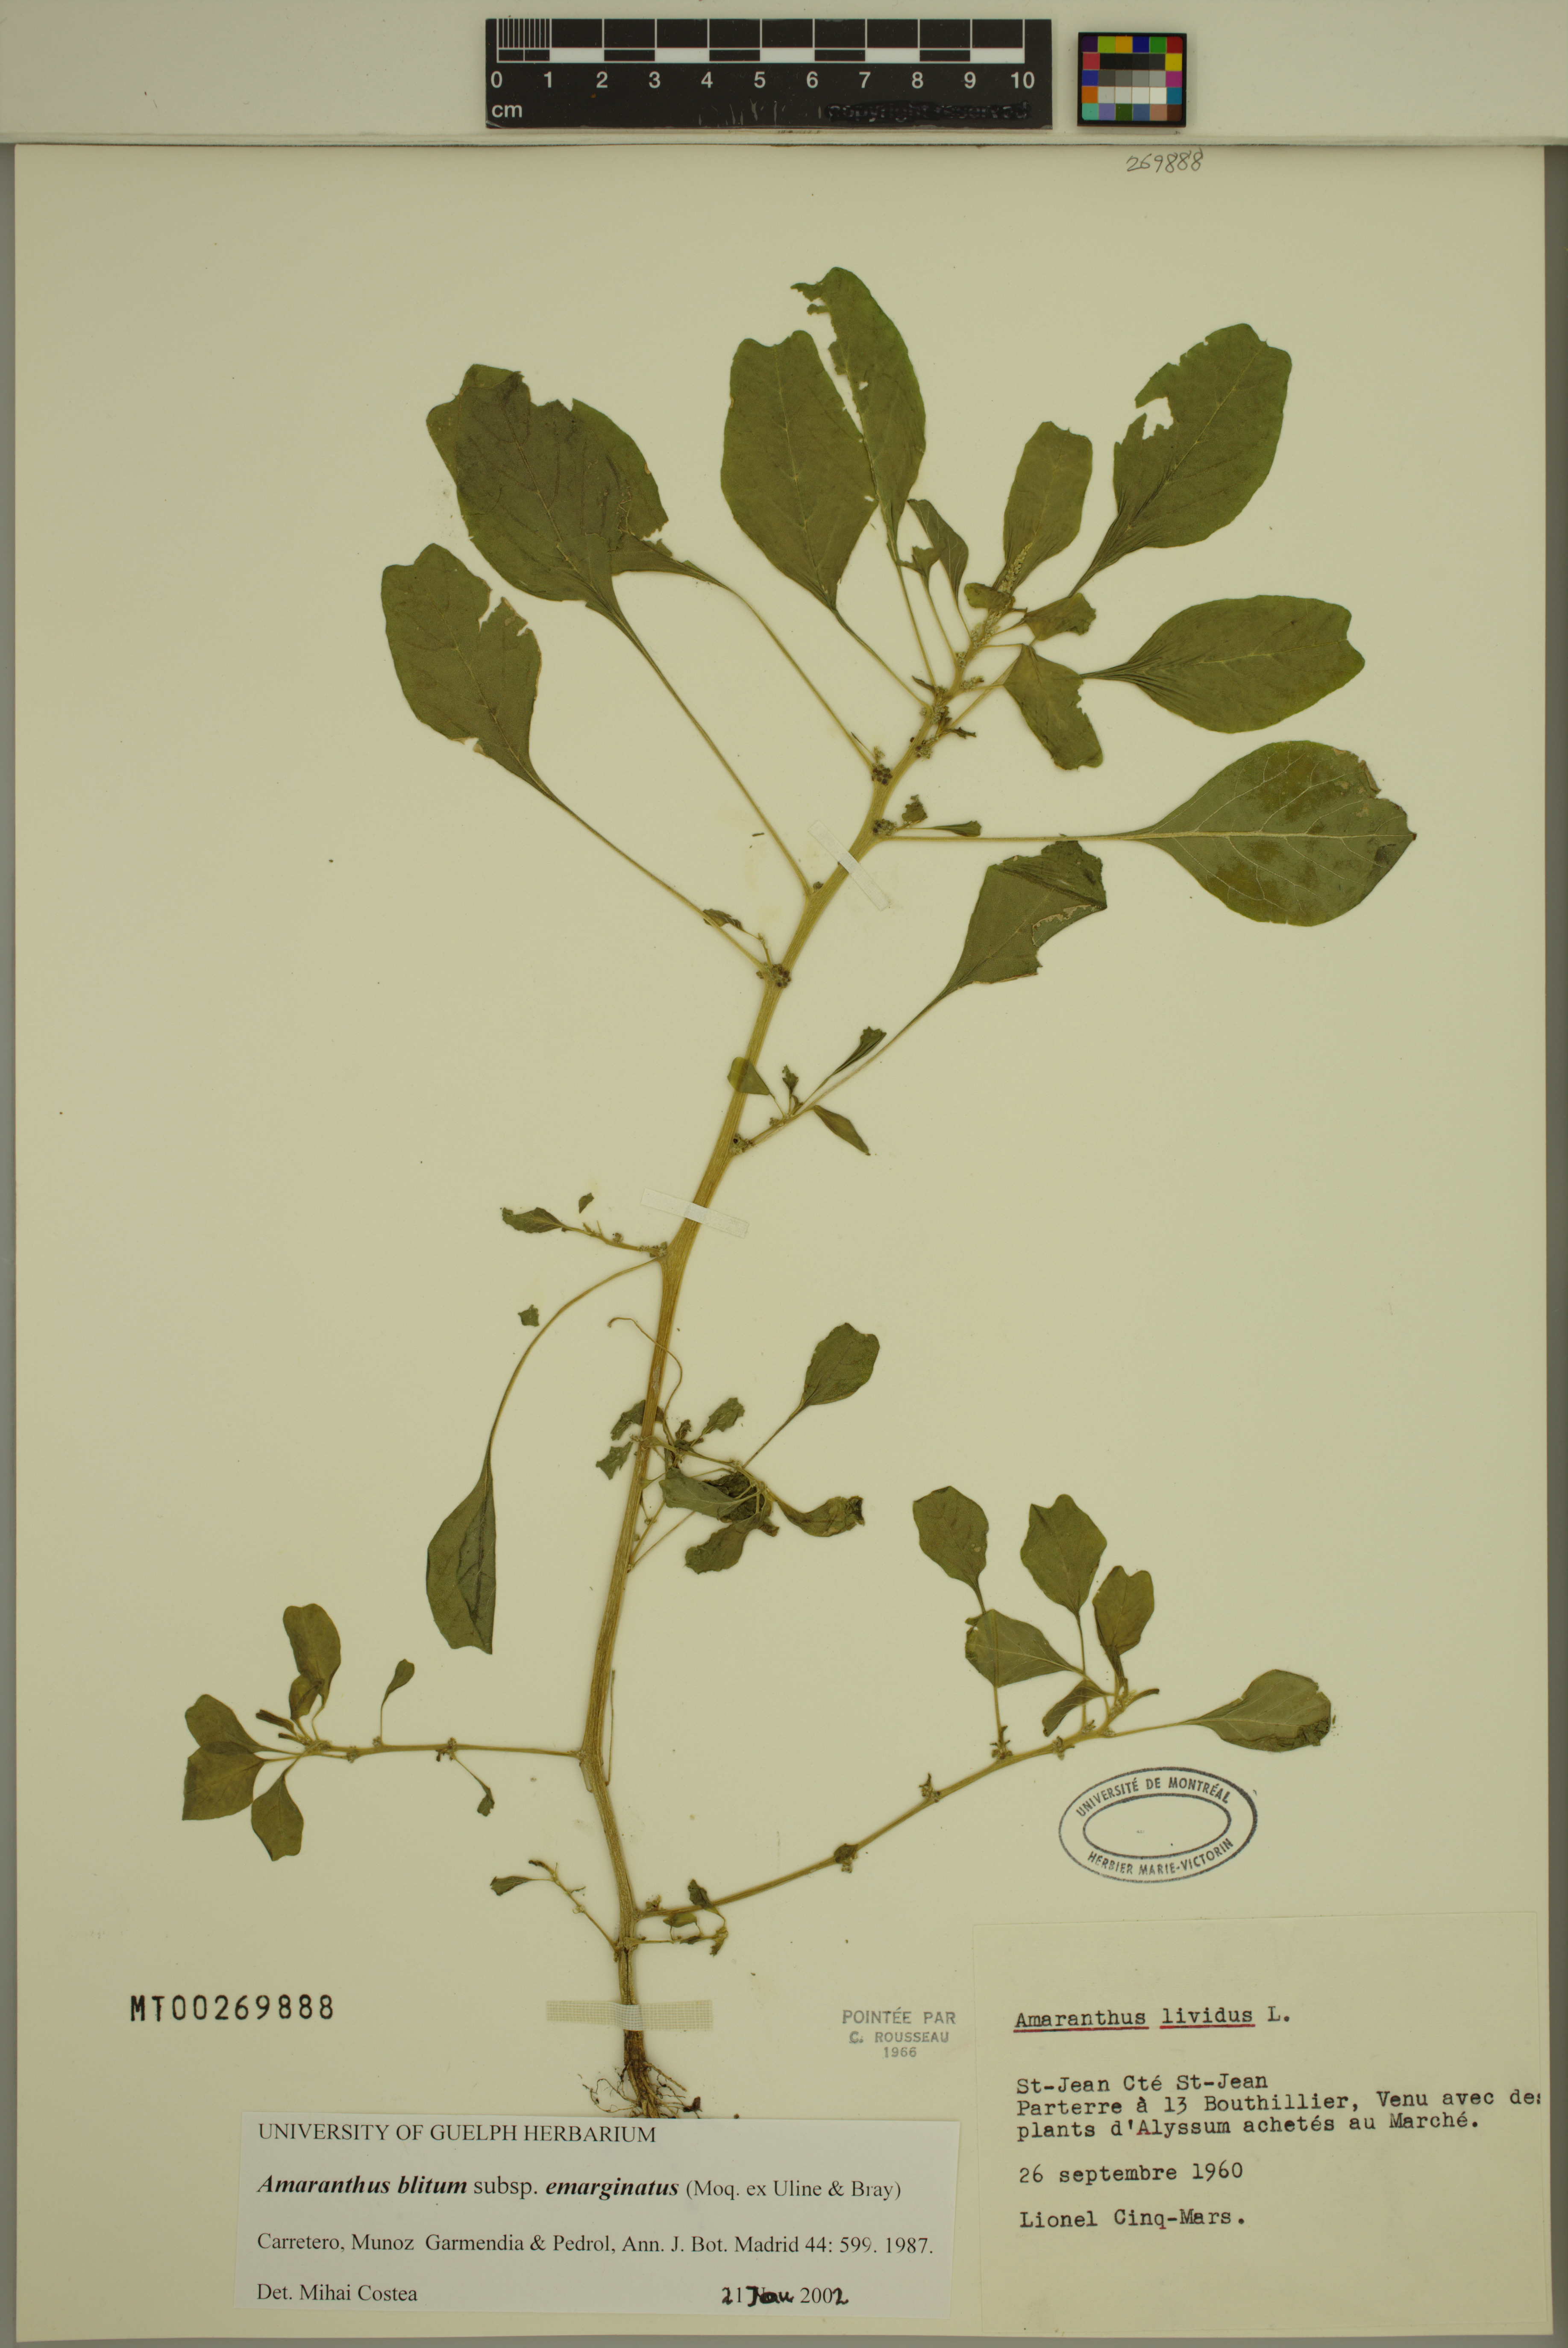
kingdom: Plantae
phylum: Tracheophyta
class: Magnoliopsida
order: Caryophyllales
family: Amaranthaceae
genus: Amaranthus
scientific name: Amaranthus emarginatus
